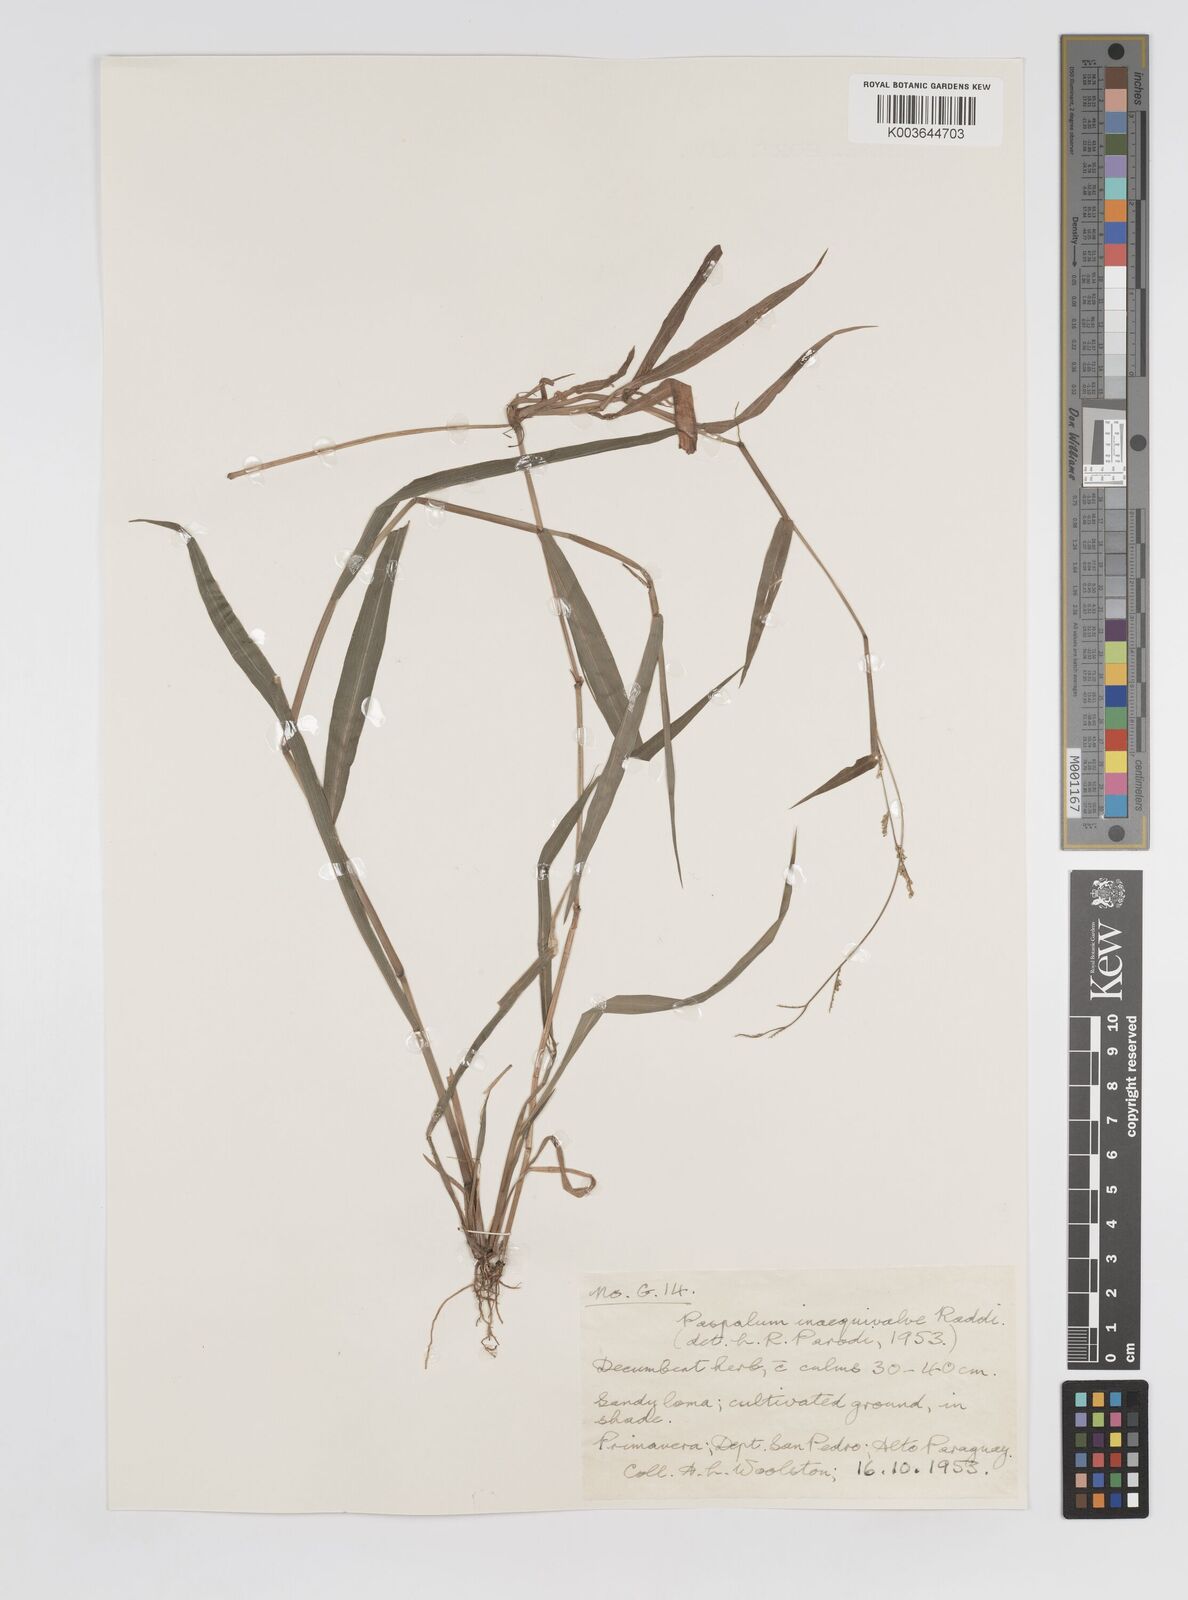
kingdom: Plantae
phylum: Tracheophyta
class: Liliopsida
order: Poales
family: Poaceae
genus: Paspalum
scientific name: Paspalum inaequivalve
